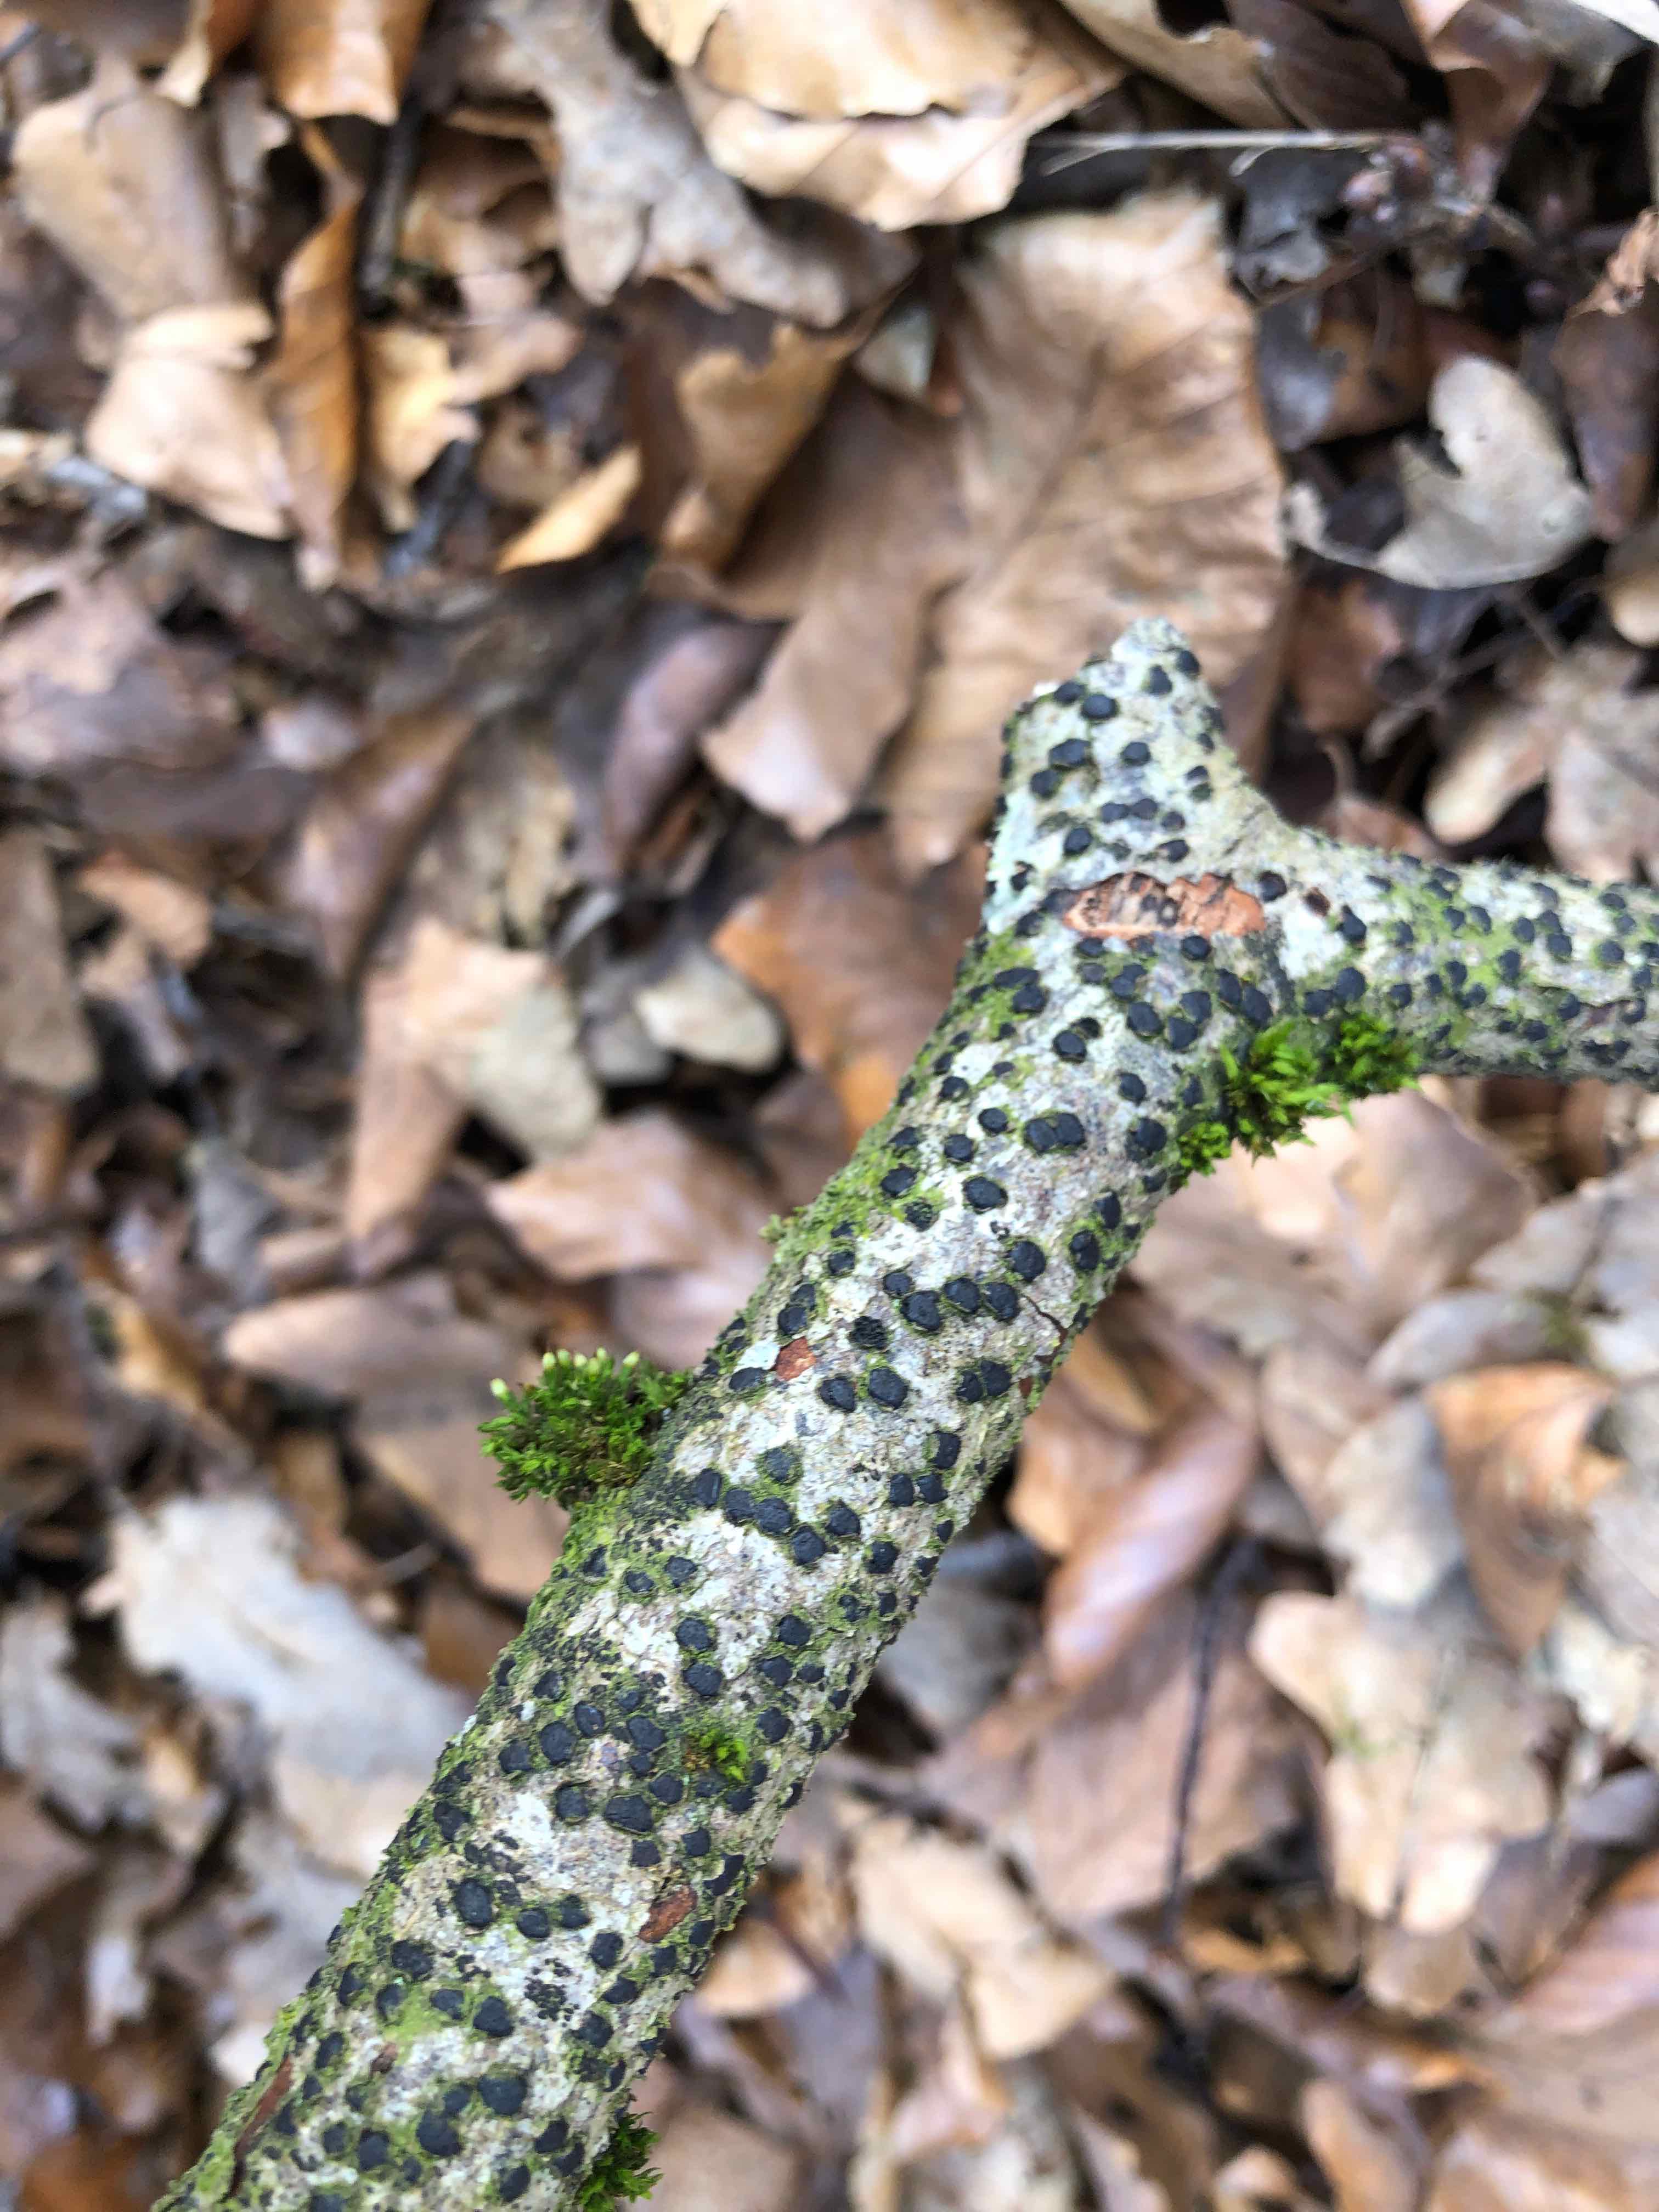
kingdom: Fungi
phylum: Ascomycota
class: Sordariomycetes
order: Xylariales
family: Diatrypaceae
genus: Diatrype
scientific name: Diatrype disciformis
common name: kant-kulskorpe
